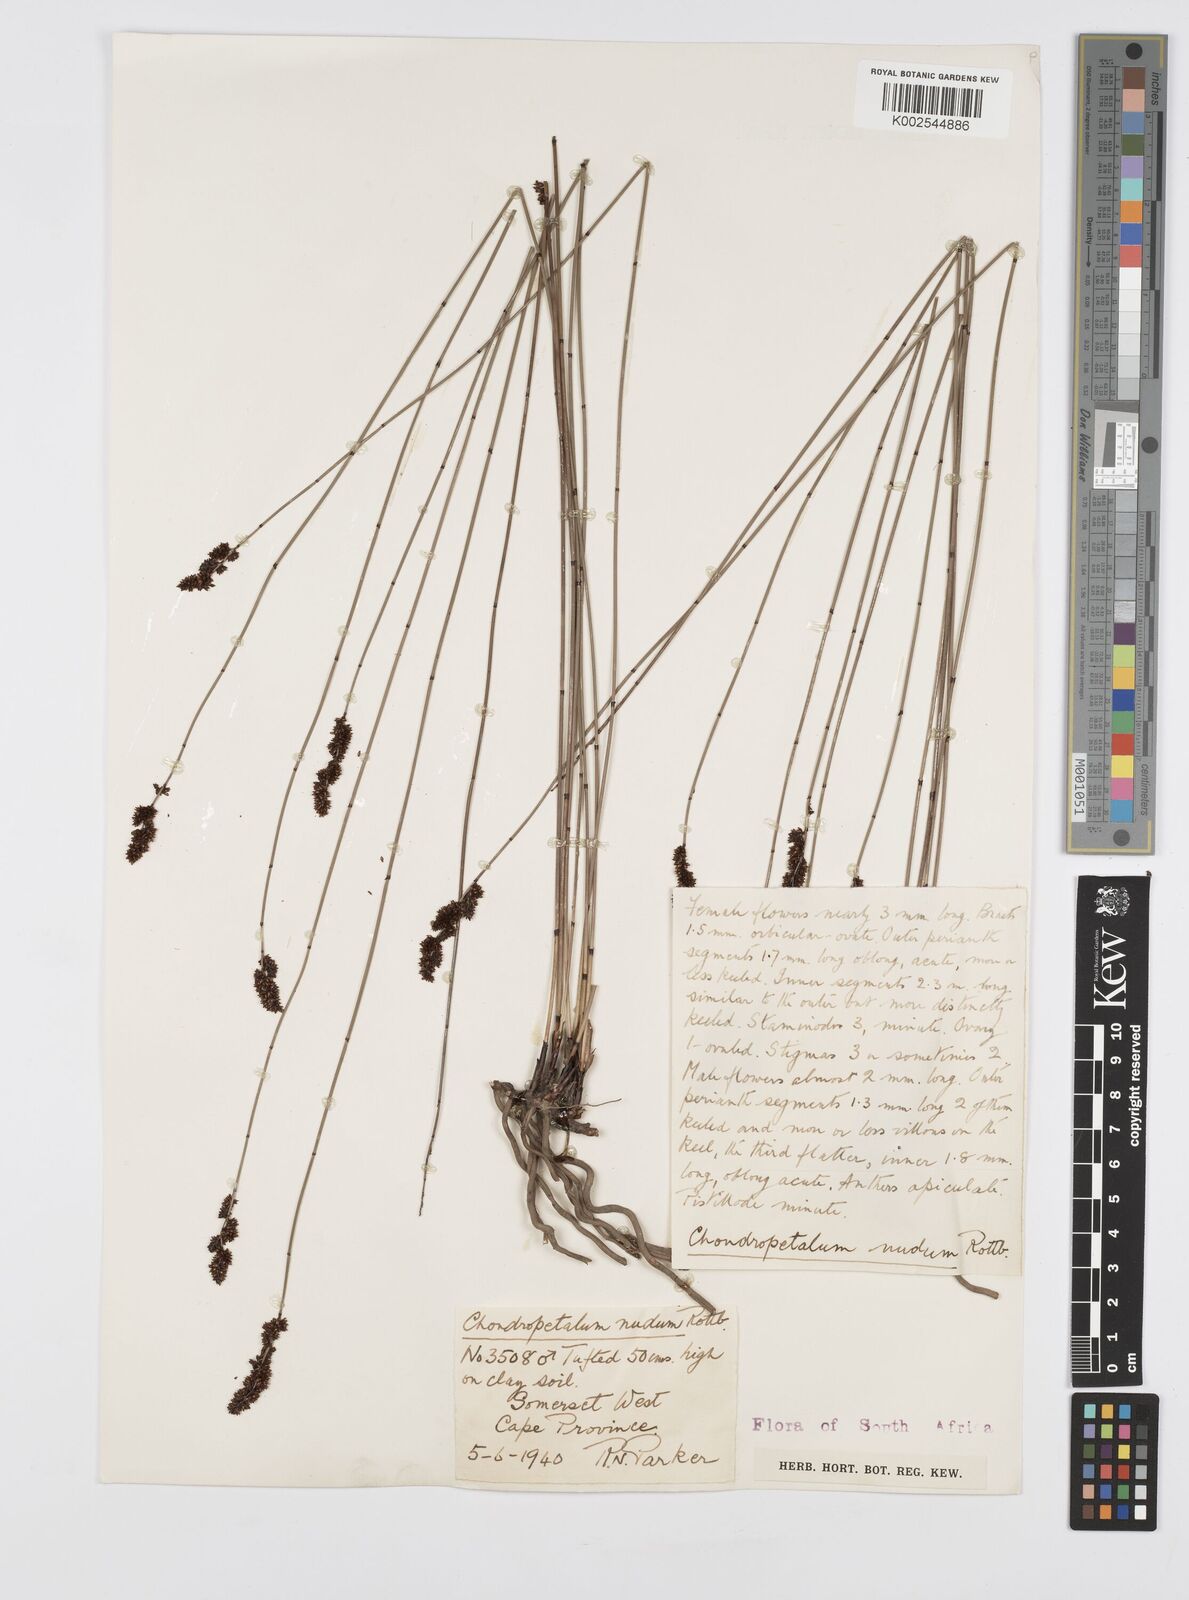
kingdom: Plantae
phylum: Tracheophyta
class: Liliopsida
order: Poales
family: Restionaceae
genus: Elegia
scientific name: Elegia nuda
